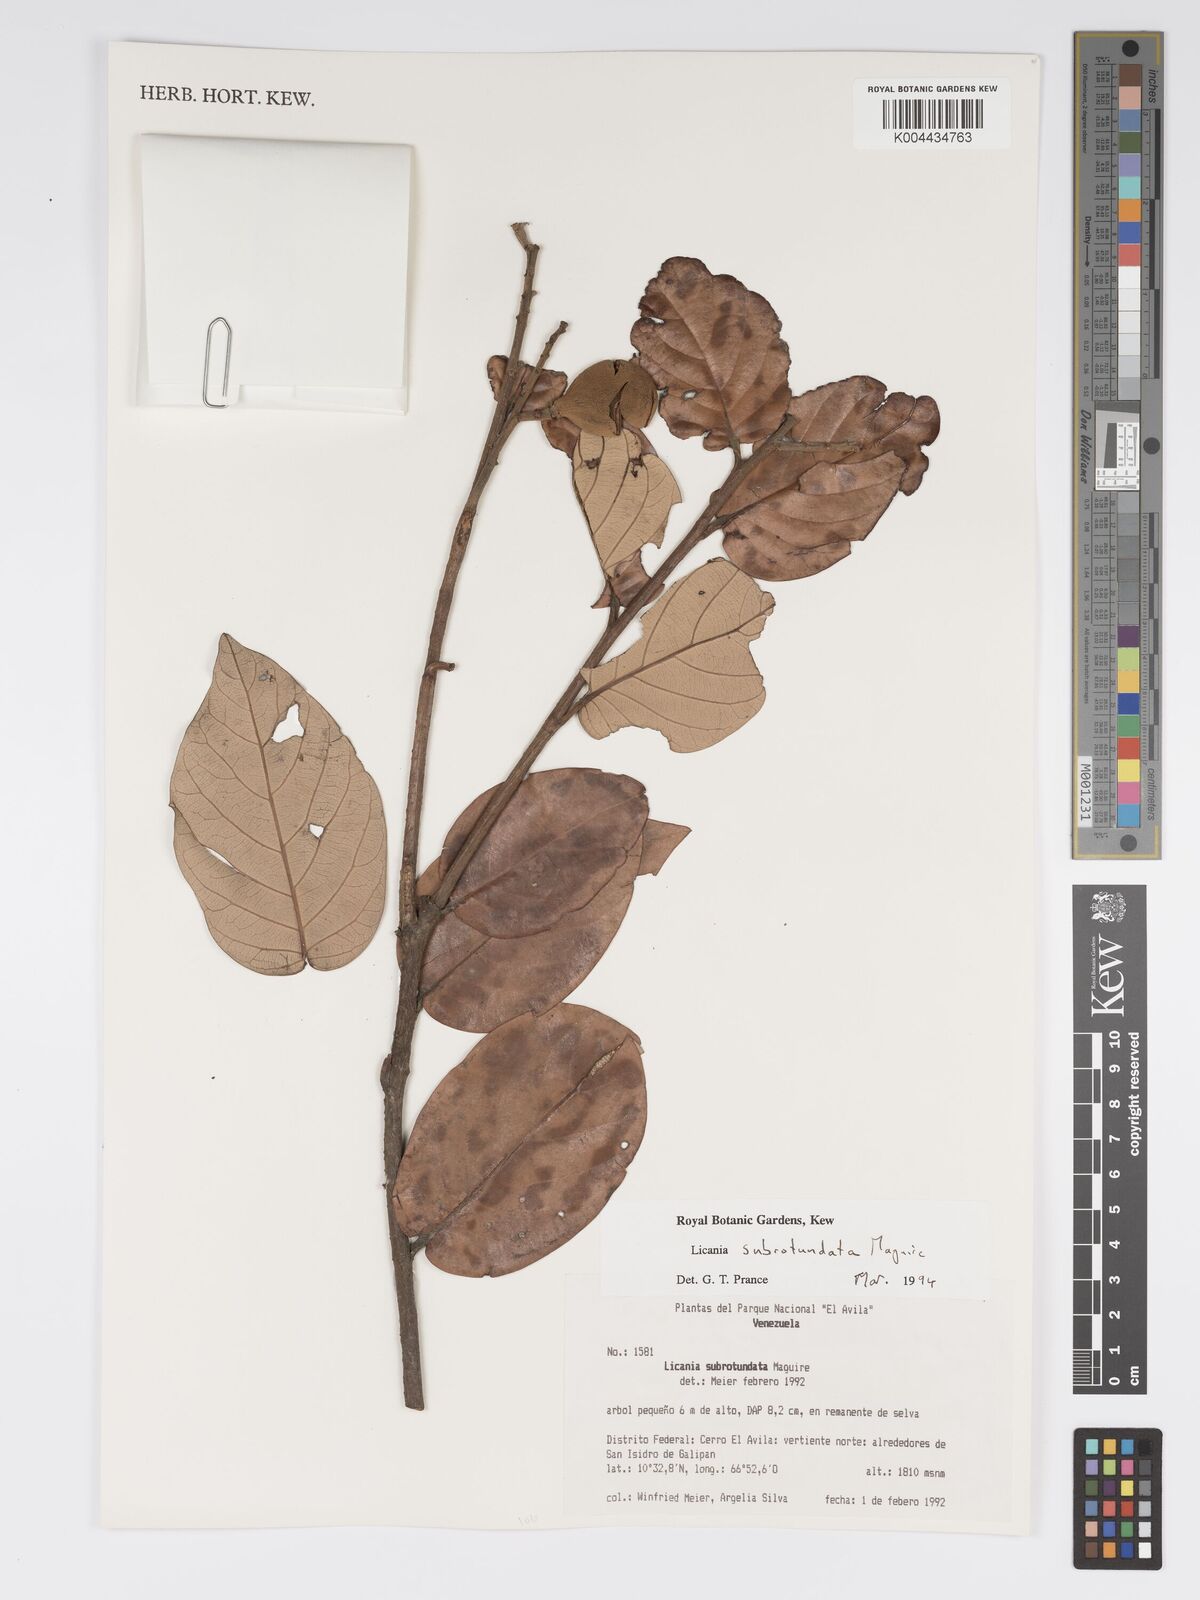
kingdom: Plantae
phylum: Tracheophyta
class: Magnoliopsida
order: Malpighiales
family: Chrysobalanaceae
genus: Licania
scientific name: Licania subrotundata
